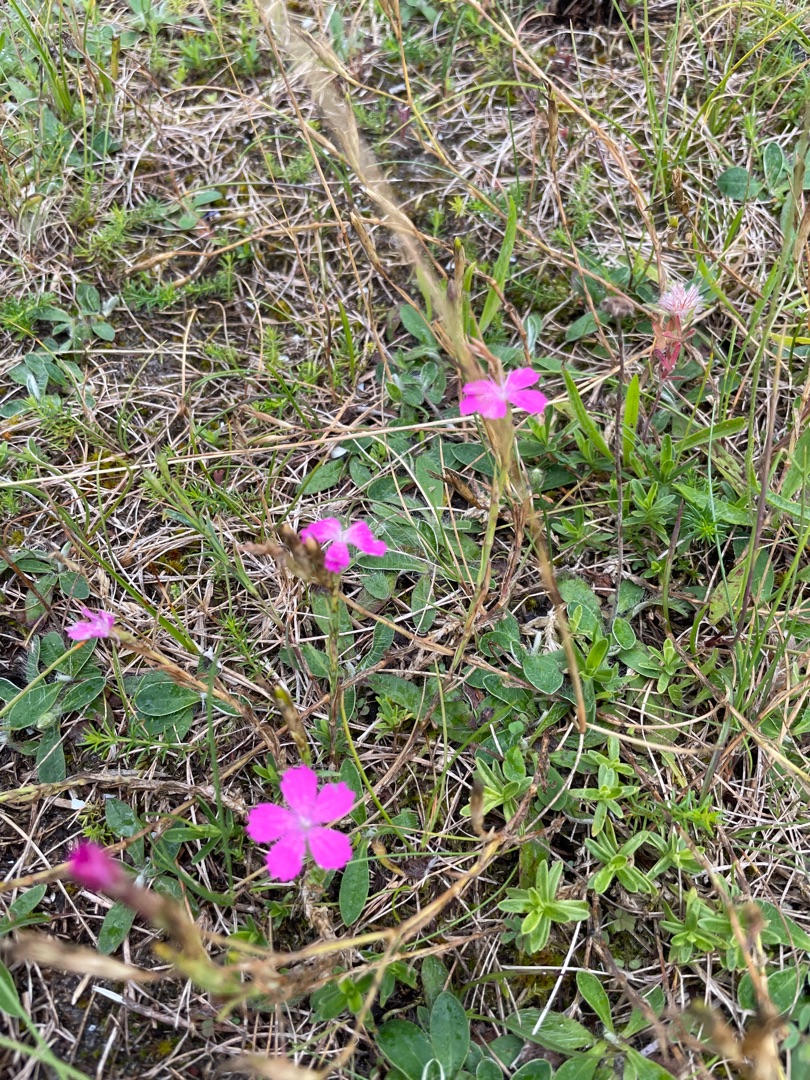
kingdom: Plantae
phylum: Tracheophyta
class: Magnoliopsida
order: Caryophyllales
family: Caryophyllaceae
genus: Dianthus
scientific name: Dianthus deltoides
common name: Bakke-nellike
